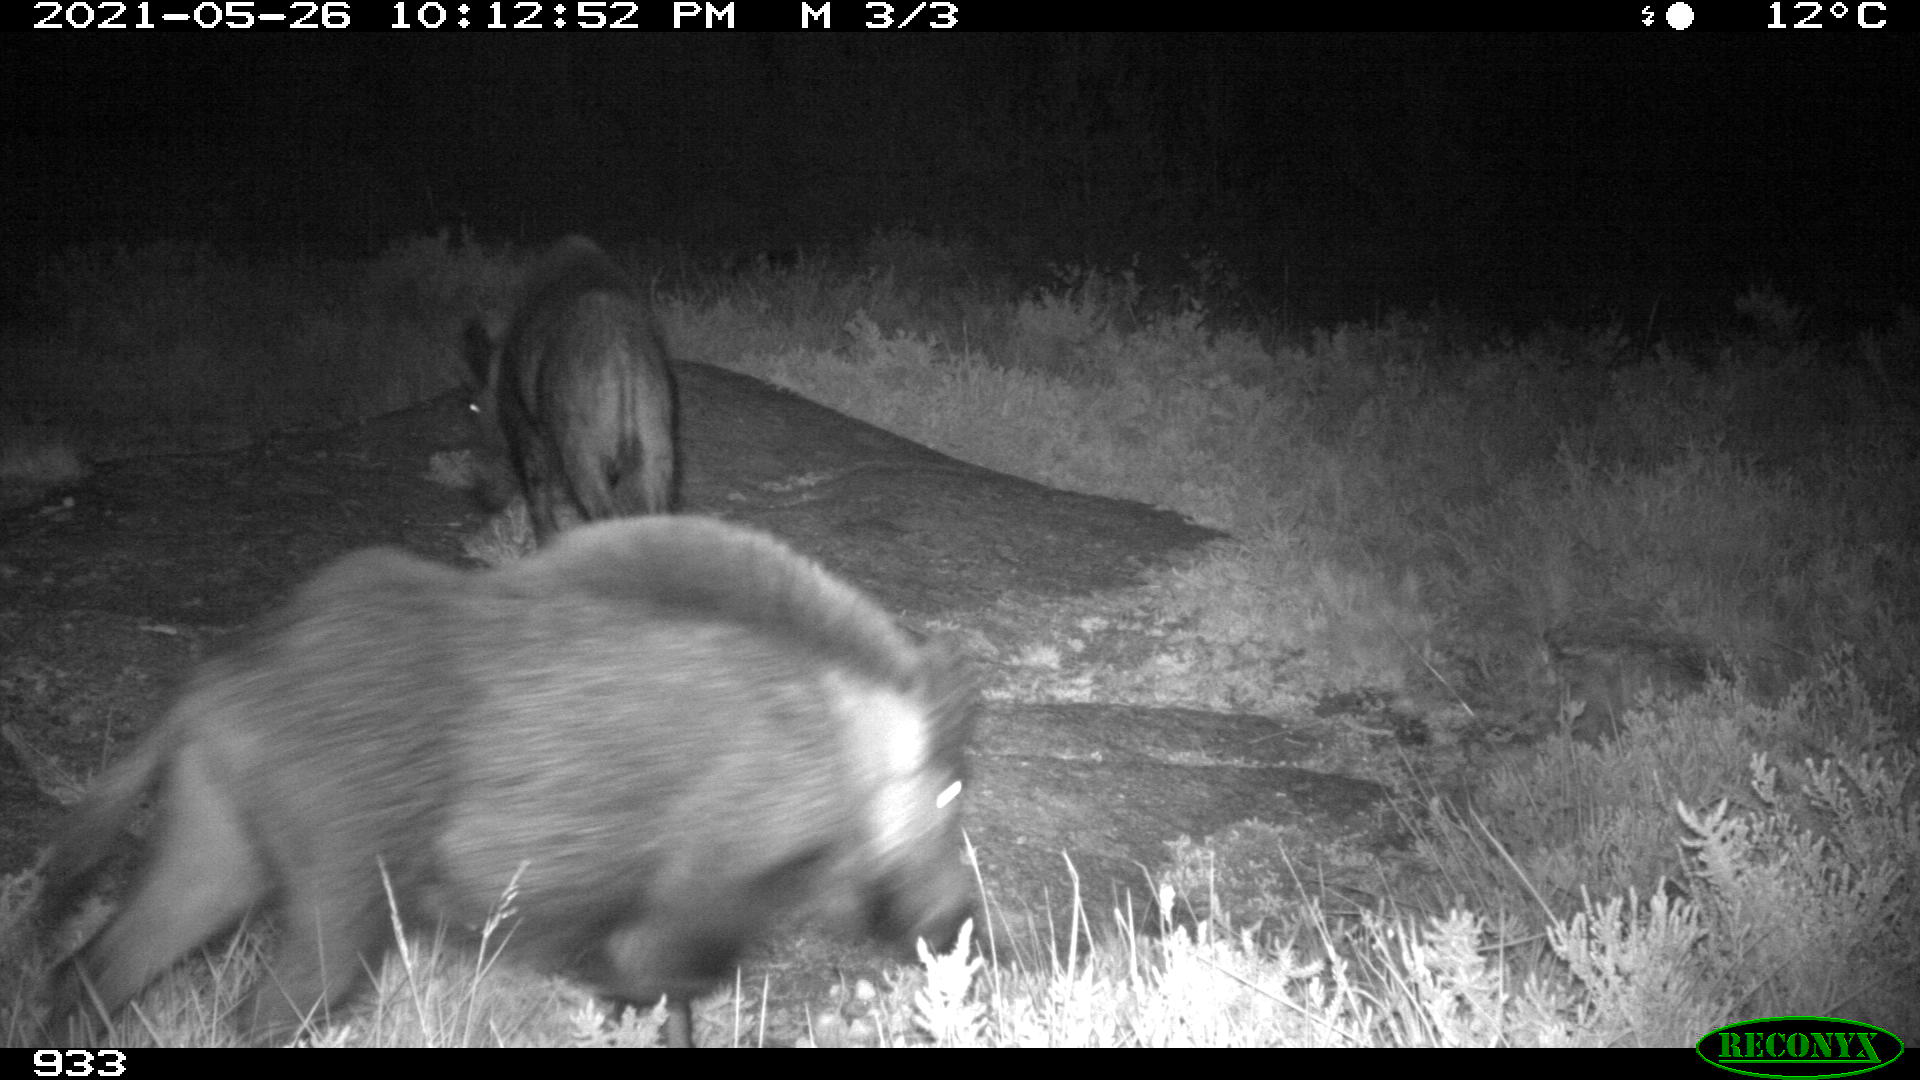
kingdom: Animalia
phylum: Chordata
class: Mammalia
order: Artiodactyla
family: Suidae
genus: Sus
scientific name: Sus scrofa
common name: Wild boar
